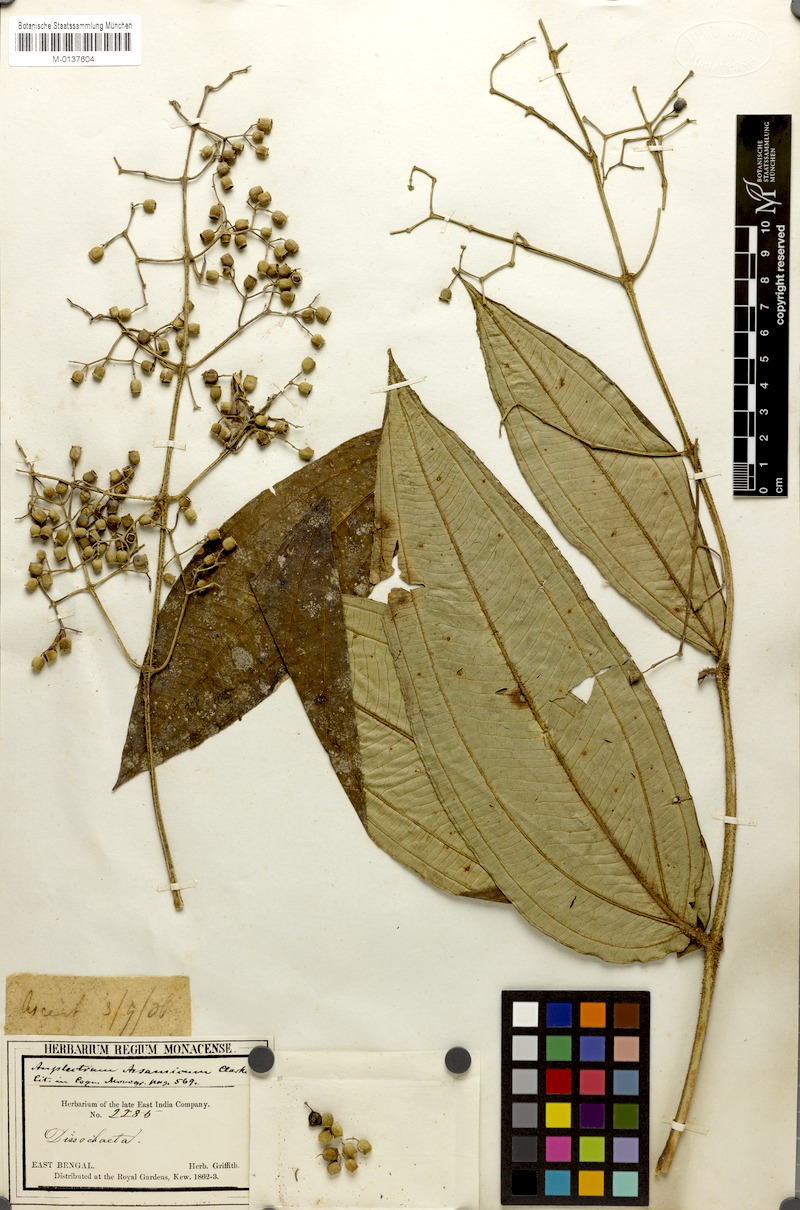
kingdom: Plantae
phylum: Tracheophyta
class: Magnoliopsida
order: Myrtales
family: Melastomataceae
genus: Pseudodissochaeta
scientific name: Pseudodissochaeta assamica
